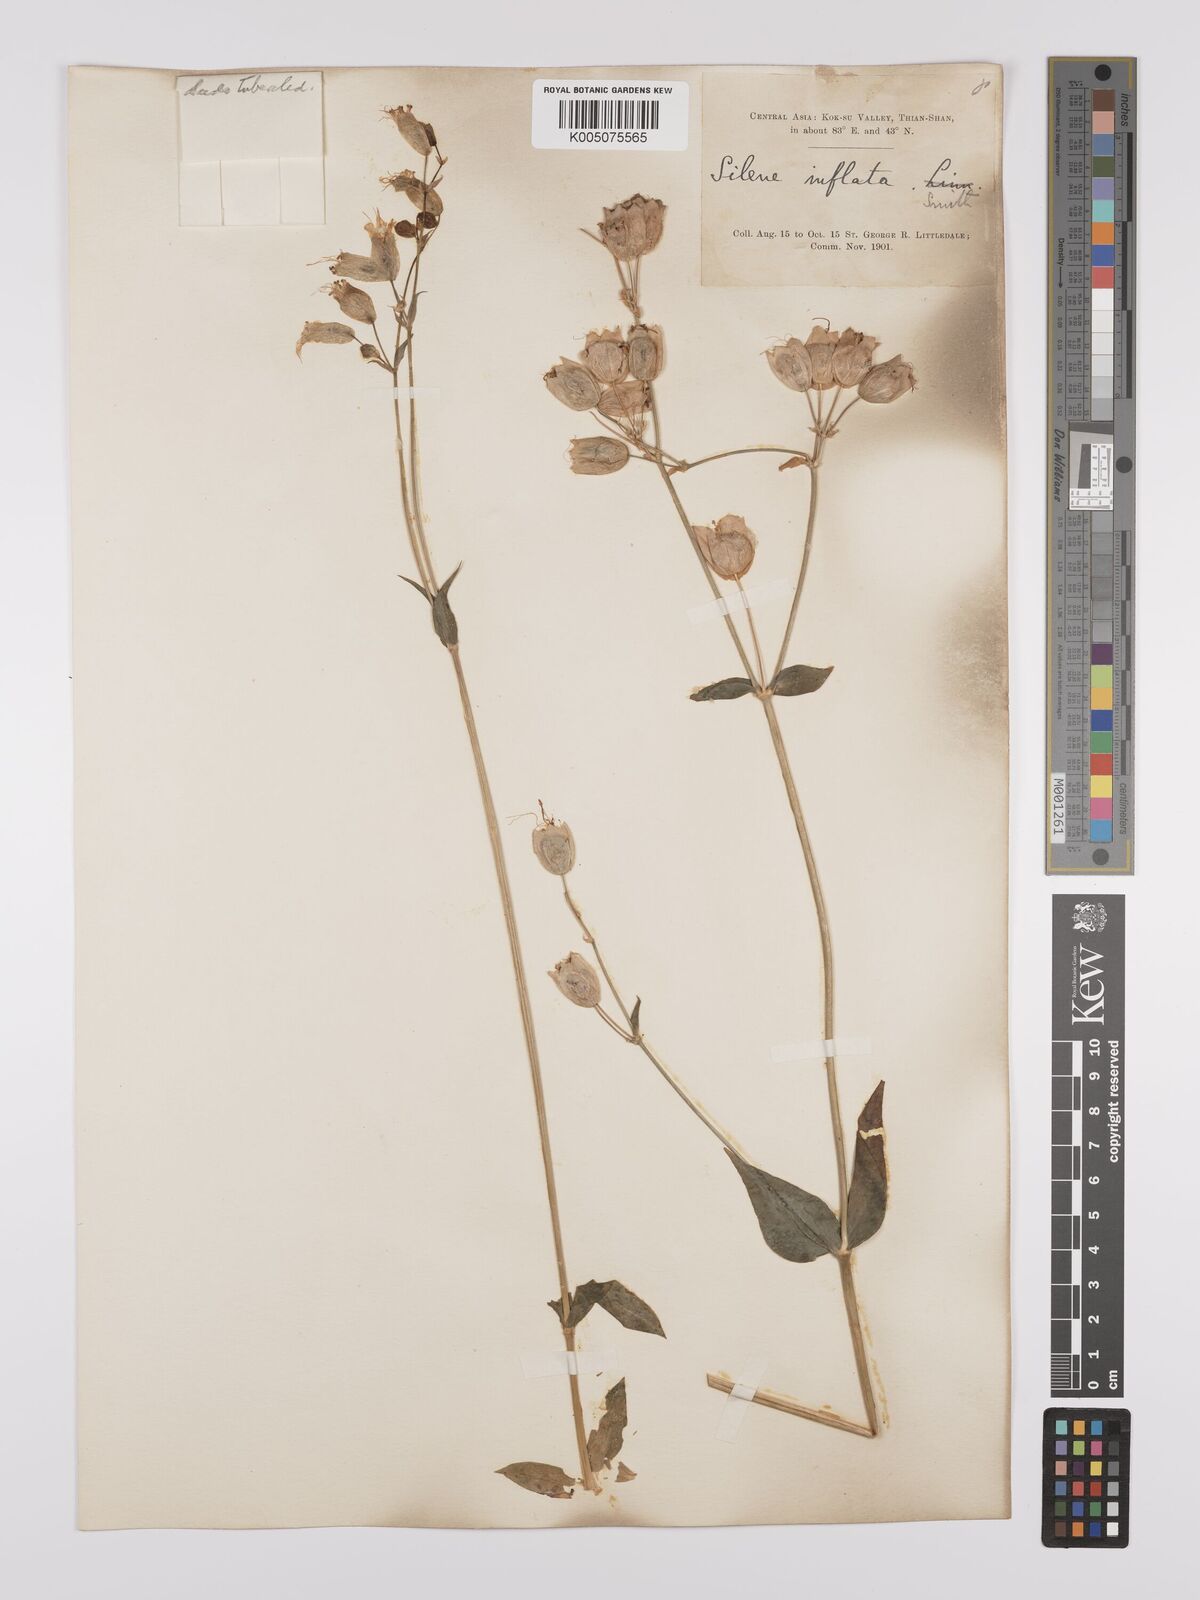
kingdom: Plantae
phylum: Tracheophyta
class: Magnoliopsida
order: Caryophyllales
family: Caryophyllaceae
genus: Silene
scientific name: Silene vulgaris
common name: Bladder campion
